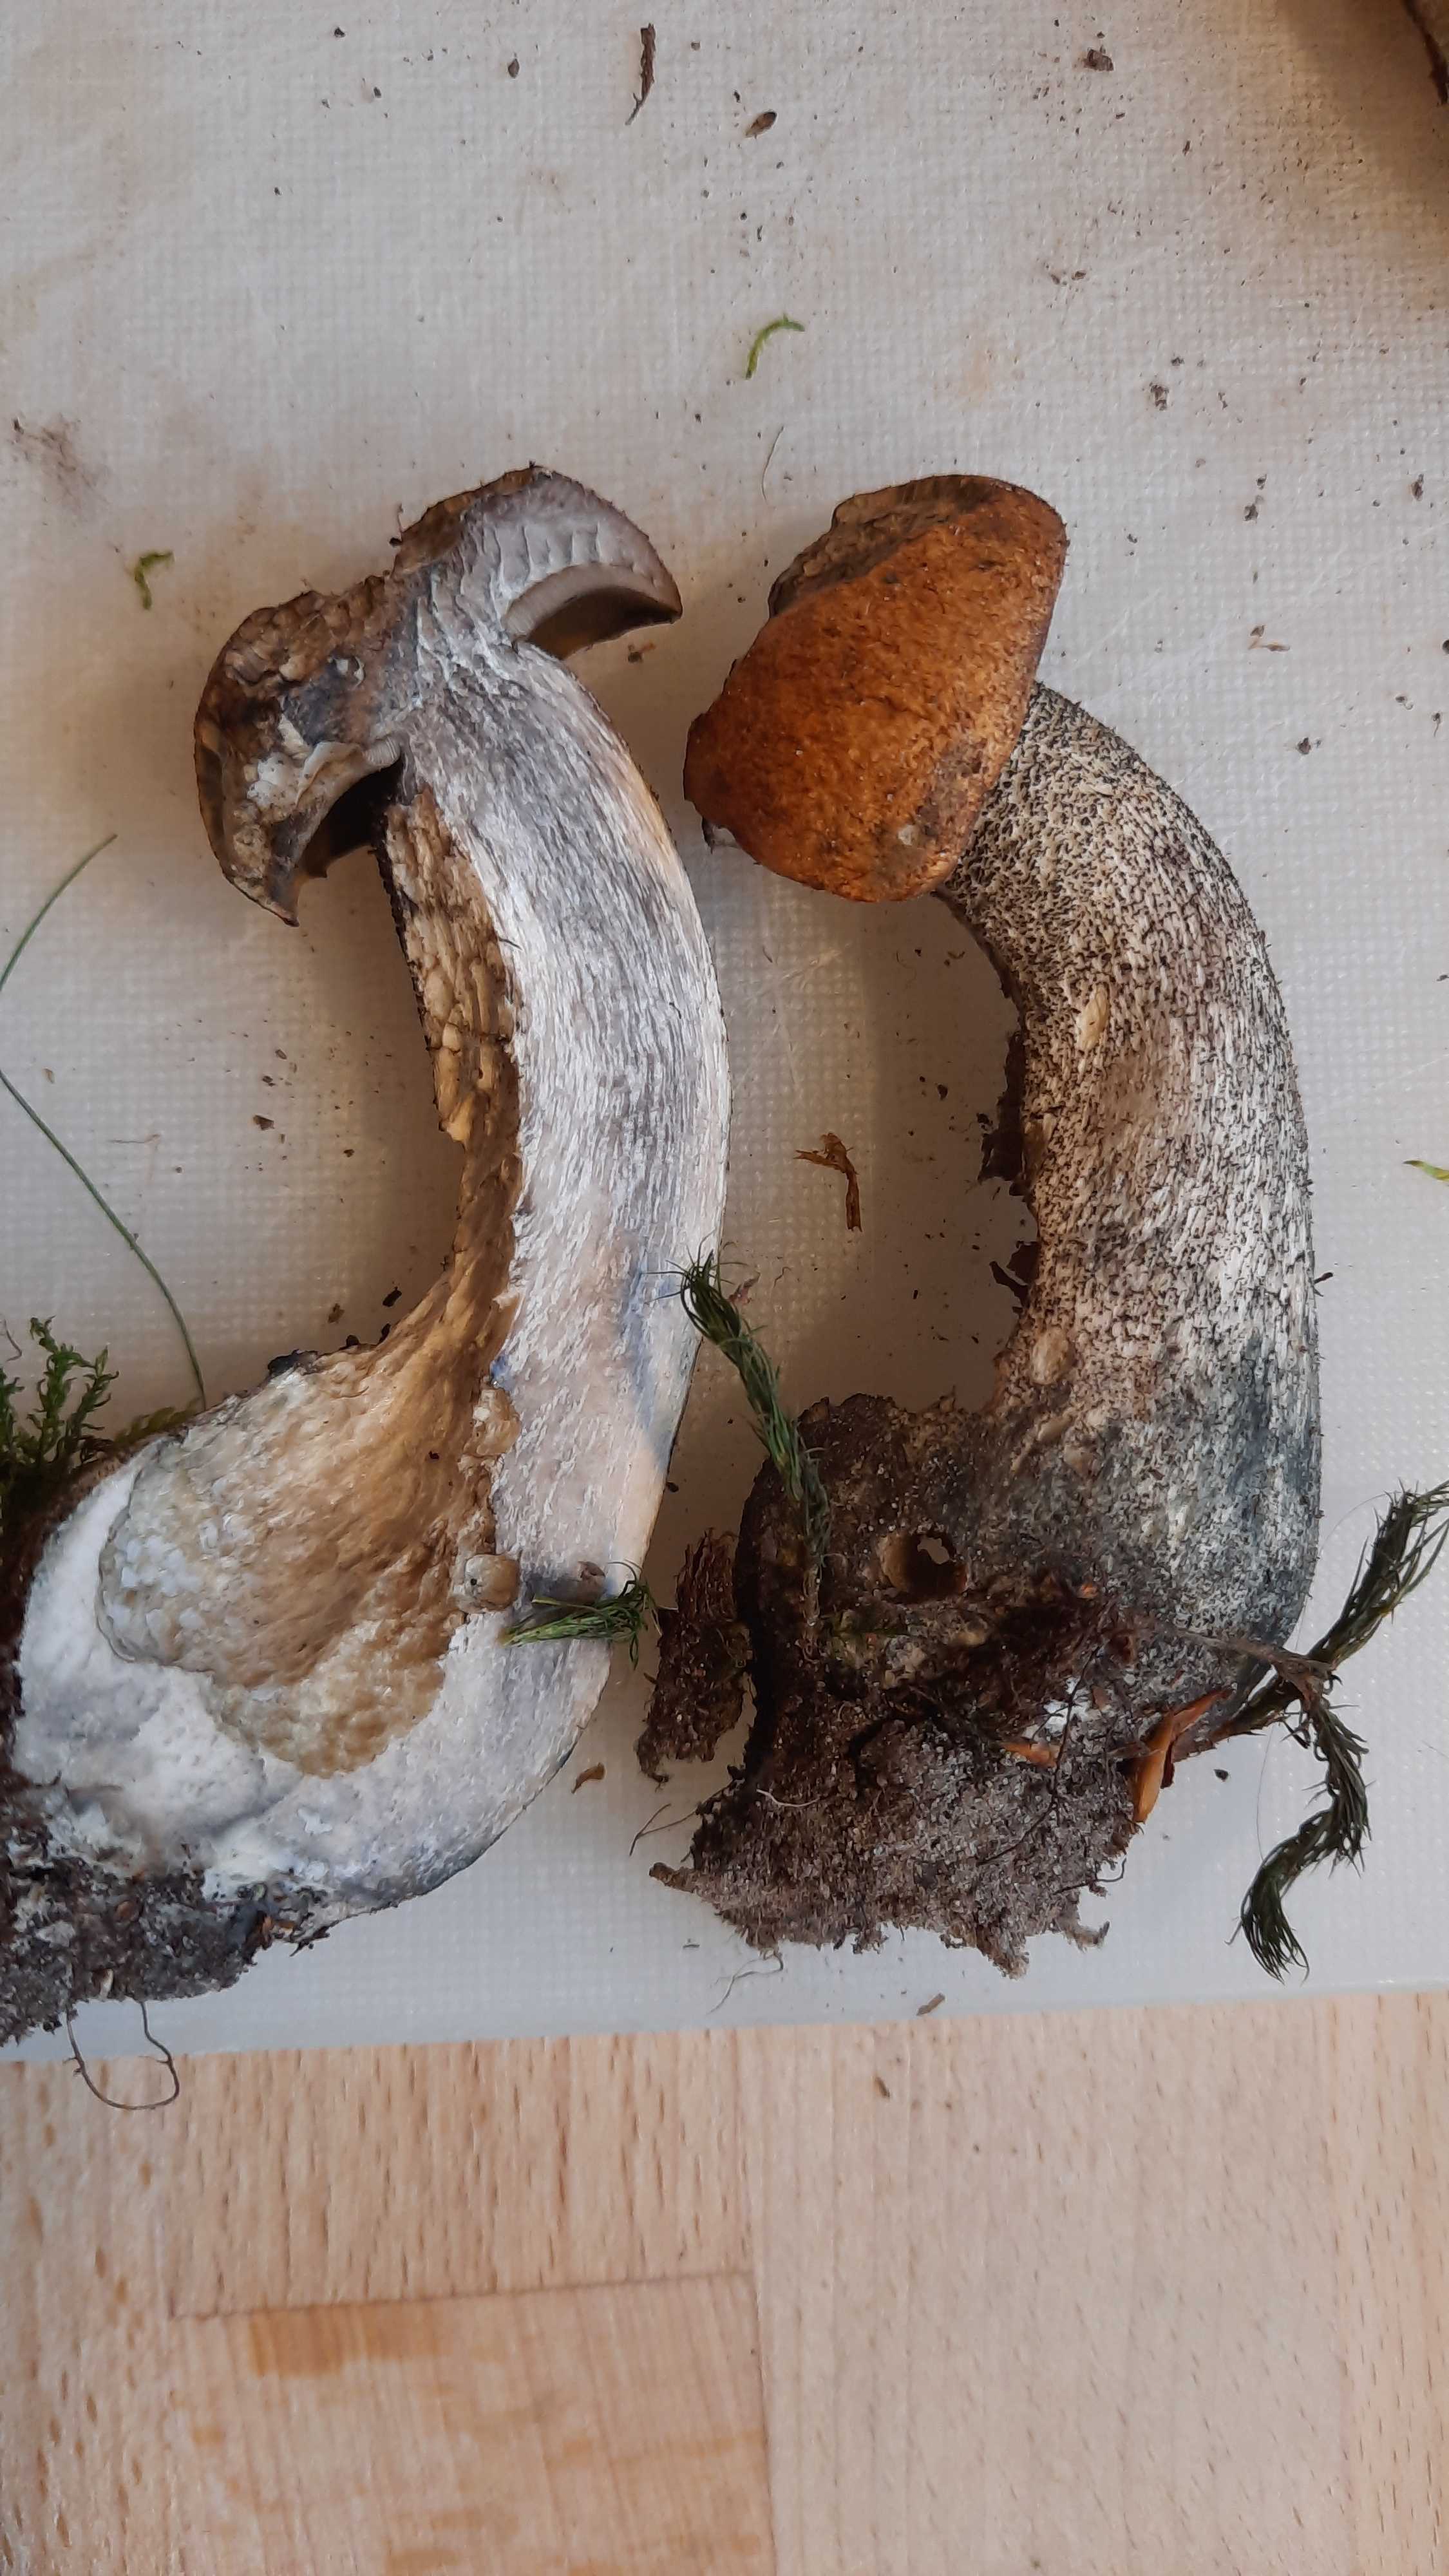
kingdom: Fungi
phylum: Basidiomycota
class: Agaricomycetes
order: Boletales
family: Boletaceae
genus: Leccinum
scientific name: Leccinum versipelle
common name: orange skælrørhat
